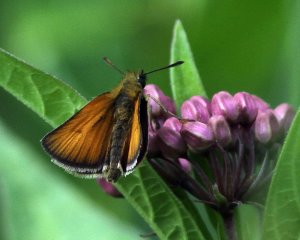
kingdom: Animalia
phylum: Arthropoda
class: Insecta
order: Lepidoptera
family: Hesperiidae
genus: Thymelicus
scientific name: Thymelicus lineola
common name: European Skipper
